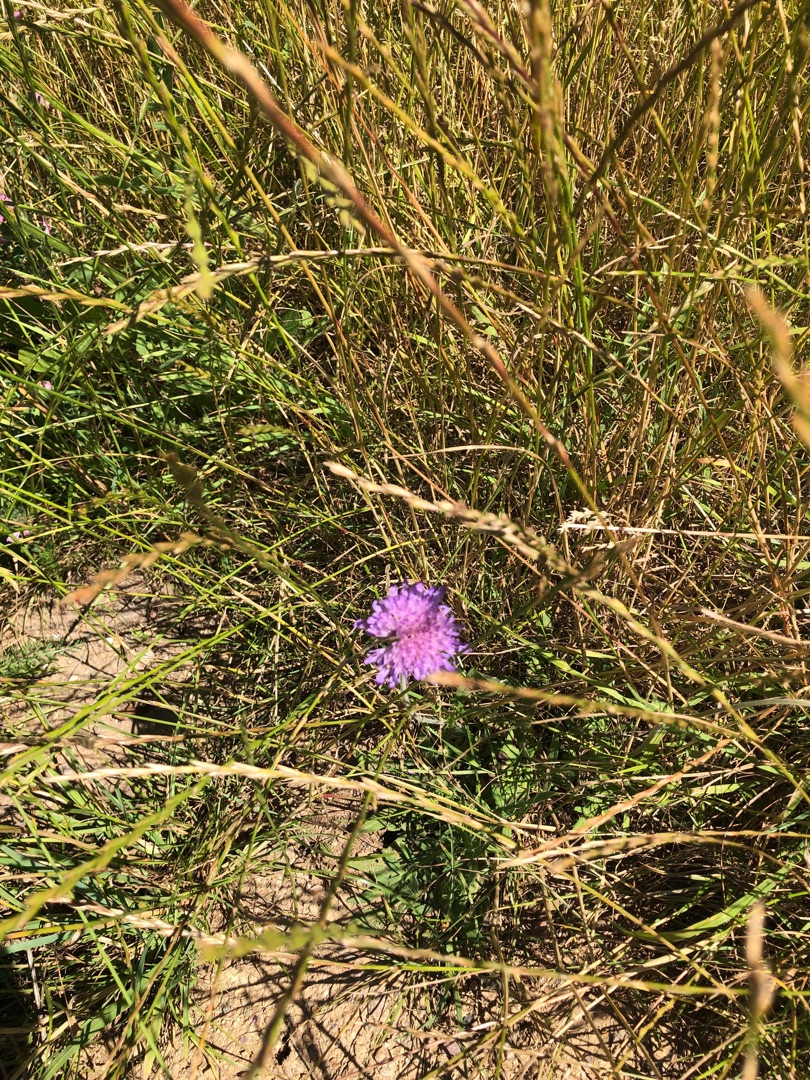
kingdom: Plantae
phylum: Tracheophyta
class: Magnoliopsida
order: Dipsacales
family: Caprifoliaceae
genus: Knautia
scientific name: Knautia arvensis
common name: Blåhat
